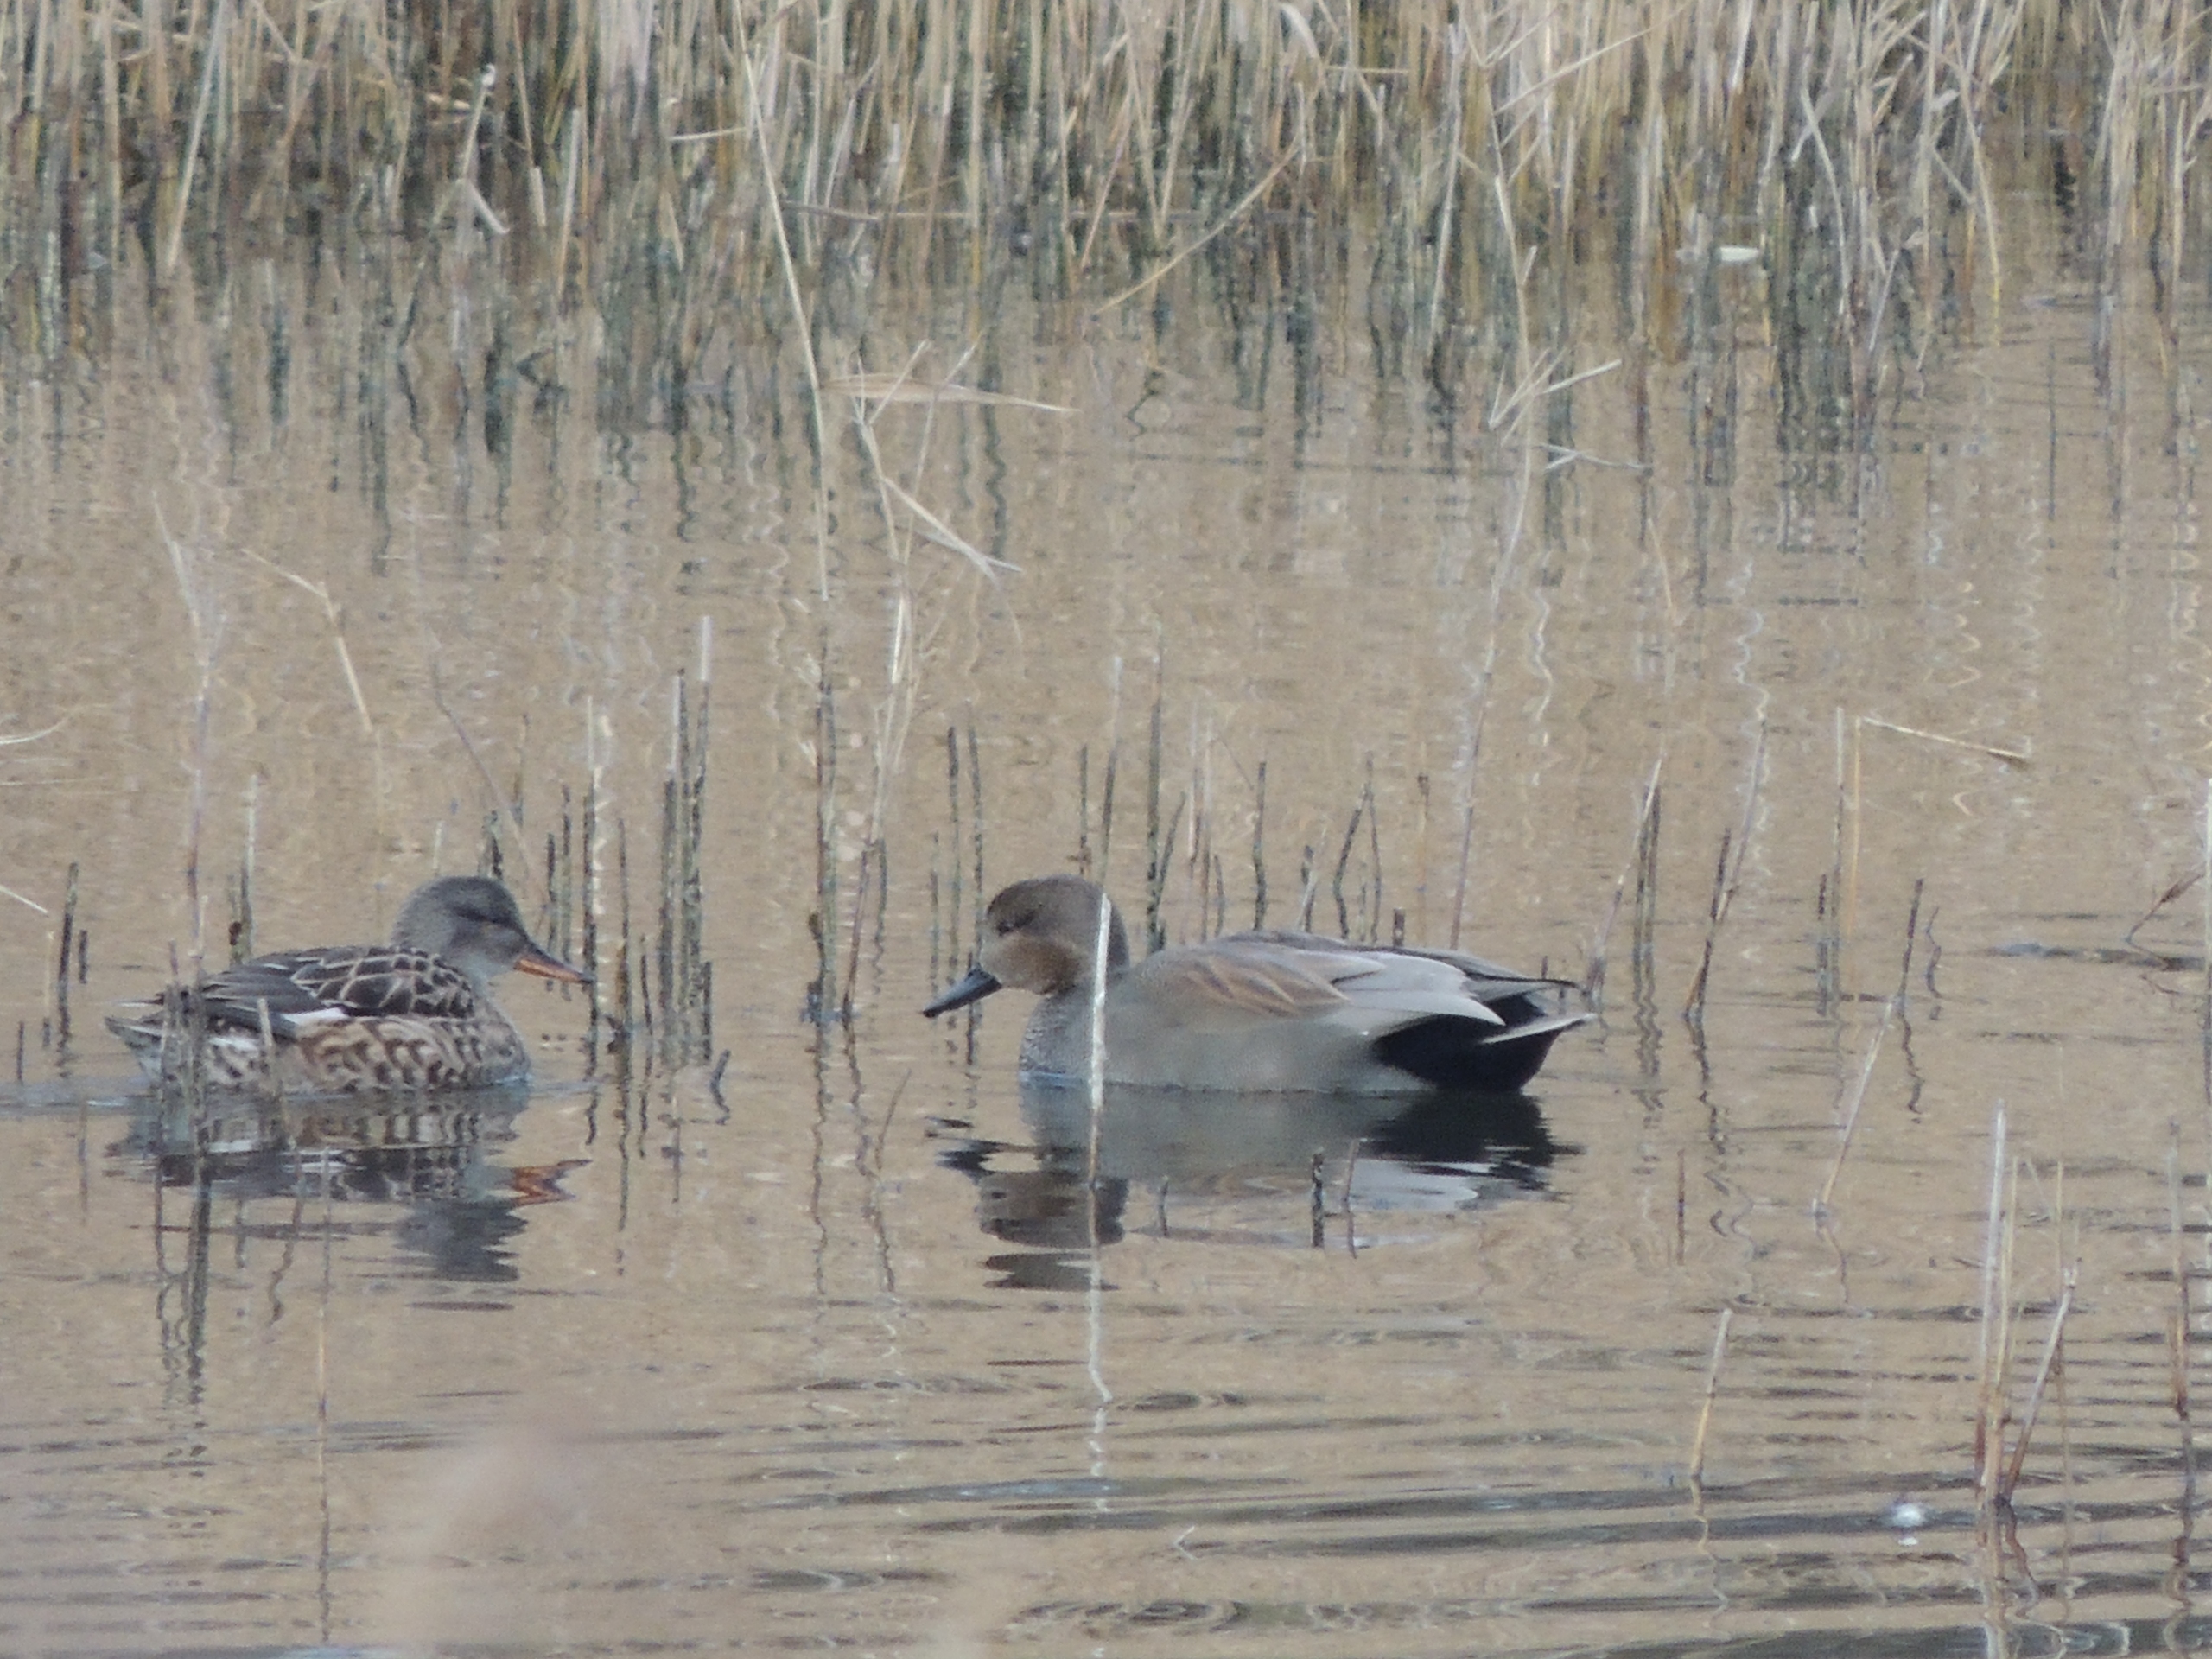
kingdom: Animalia
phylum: Chordata
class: Aves
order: Anseriformes
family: Anatidae
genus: Mareca
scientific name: Mareca strepera
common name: Knarand
